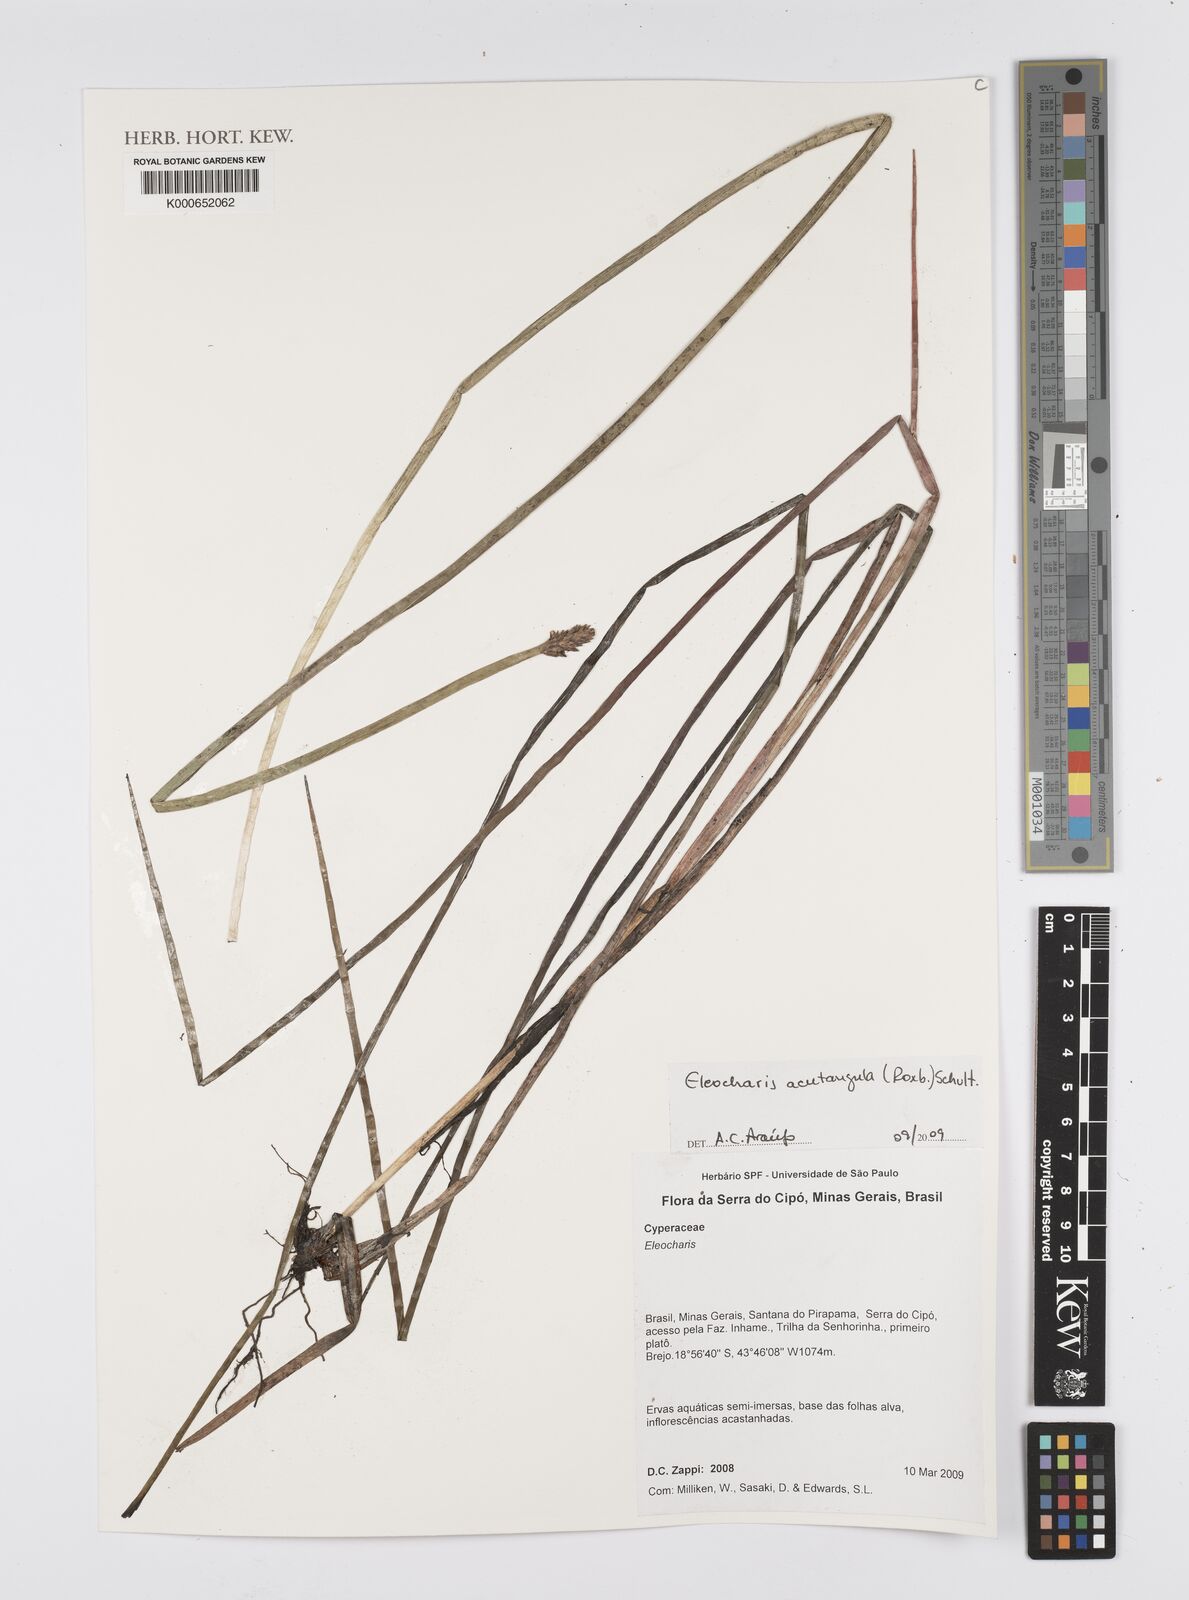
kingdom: Plantae
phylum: Tracheophyta
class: Liliopsida
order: Poales
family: Cyperaceae
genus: Eleocharis
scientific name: Eleocharis acutangula
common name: Acute spikerush
